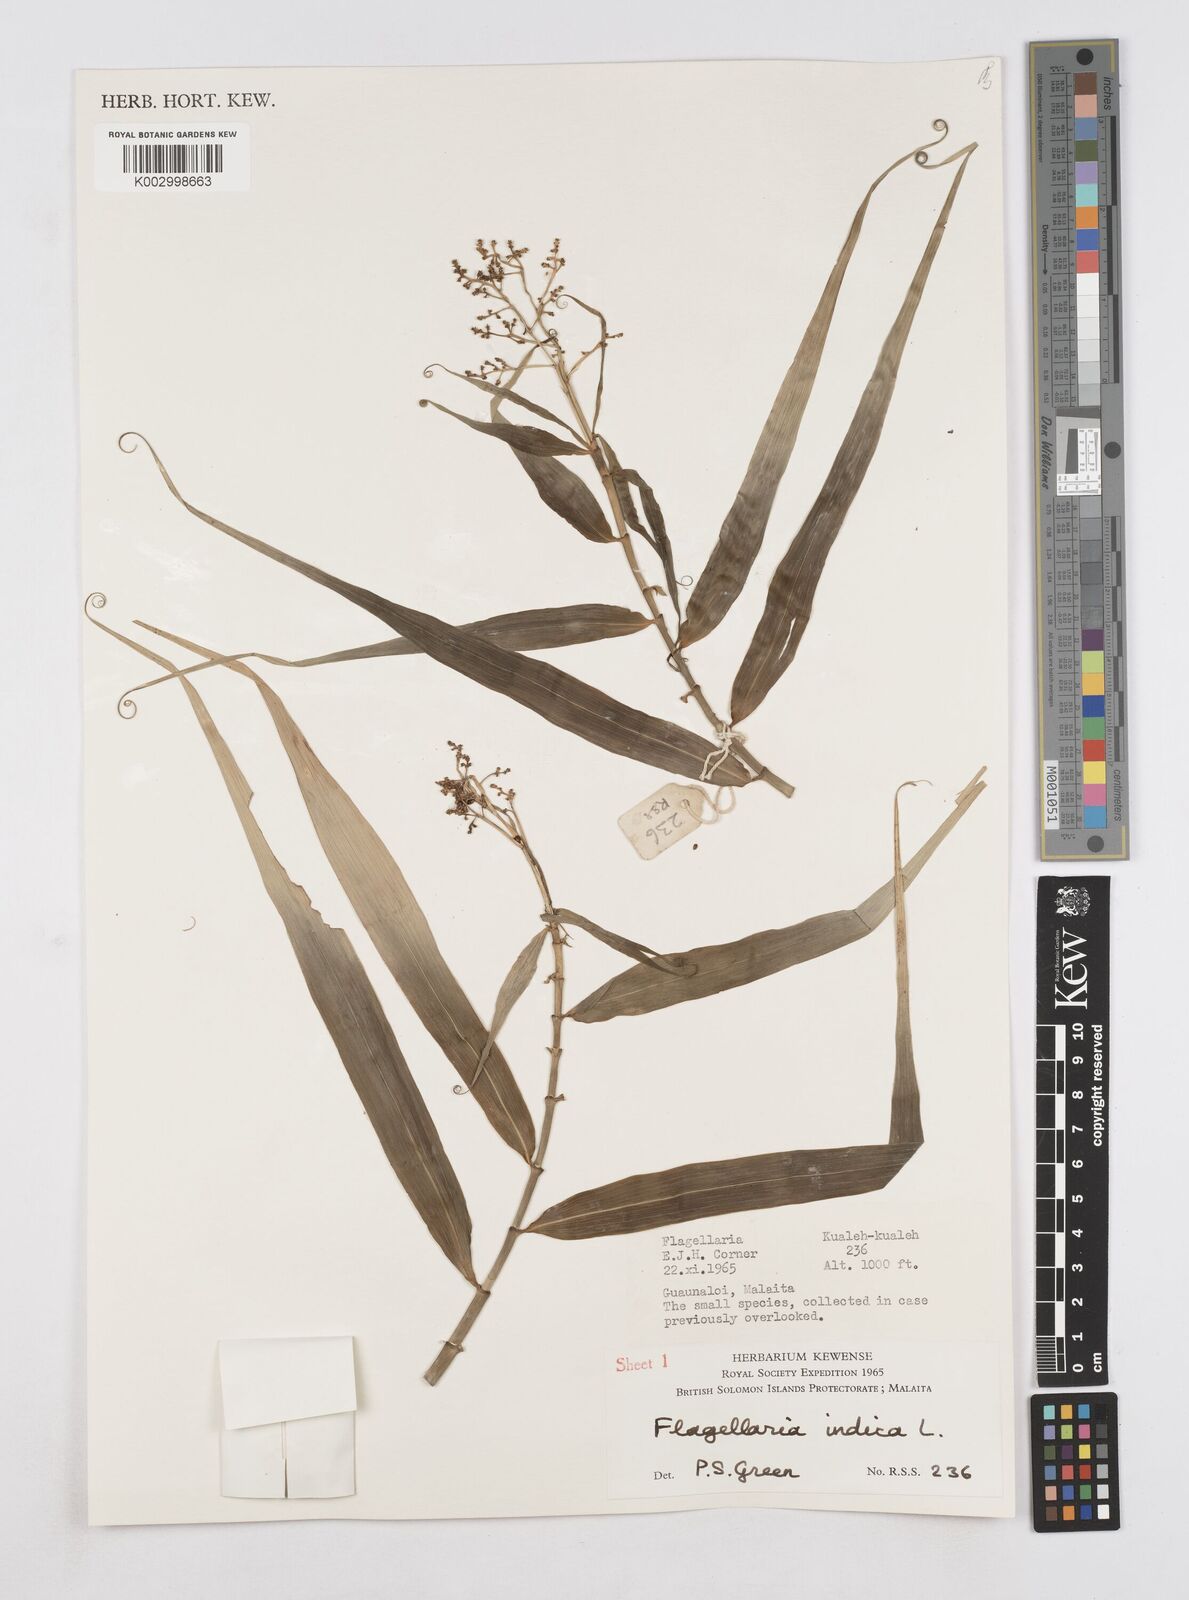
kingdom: Plantae
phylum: Tracheophyta
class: Liliopsida
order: Poales
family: Flagellariaceae
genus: Flagellaria
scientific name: Flagellaria indica
